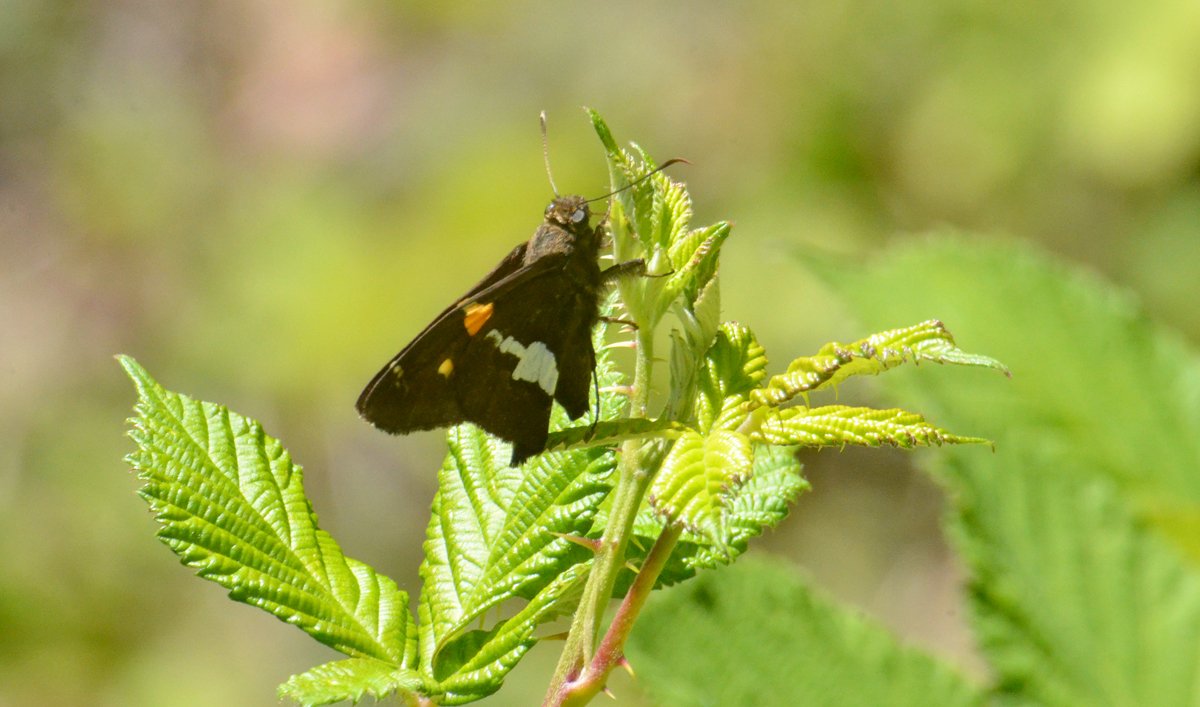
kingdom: Animalia
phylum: Arthropoda
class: Insecta
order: Lepidoptera
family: Hesperiidae
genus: Epargyreus
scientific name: Epargyreus clarus
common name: Silver-spotted Skipper
